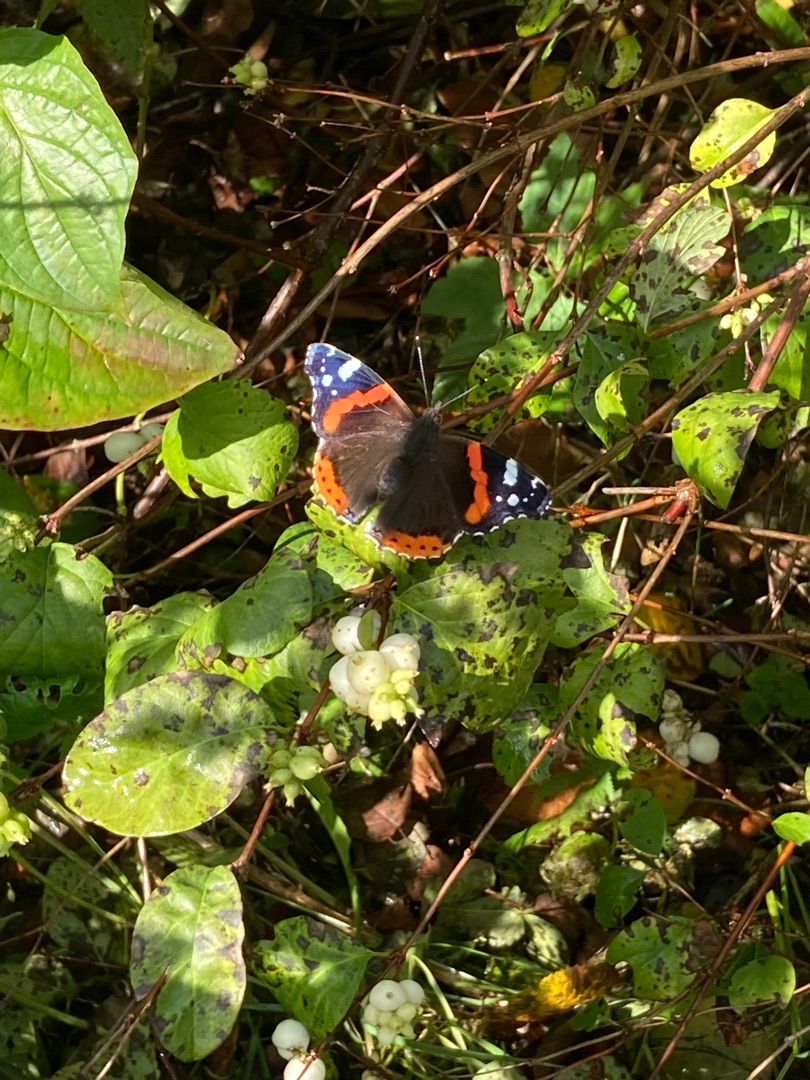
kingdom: Animalia
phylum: Arthropoda
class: Insecta
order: Lepidoptera
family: Nymphalidae
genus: Vanessa
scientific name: Vanessa atalanta
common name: Admiral
